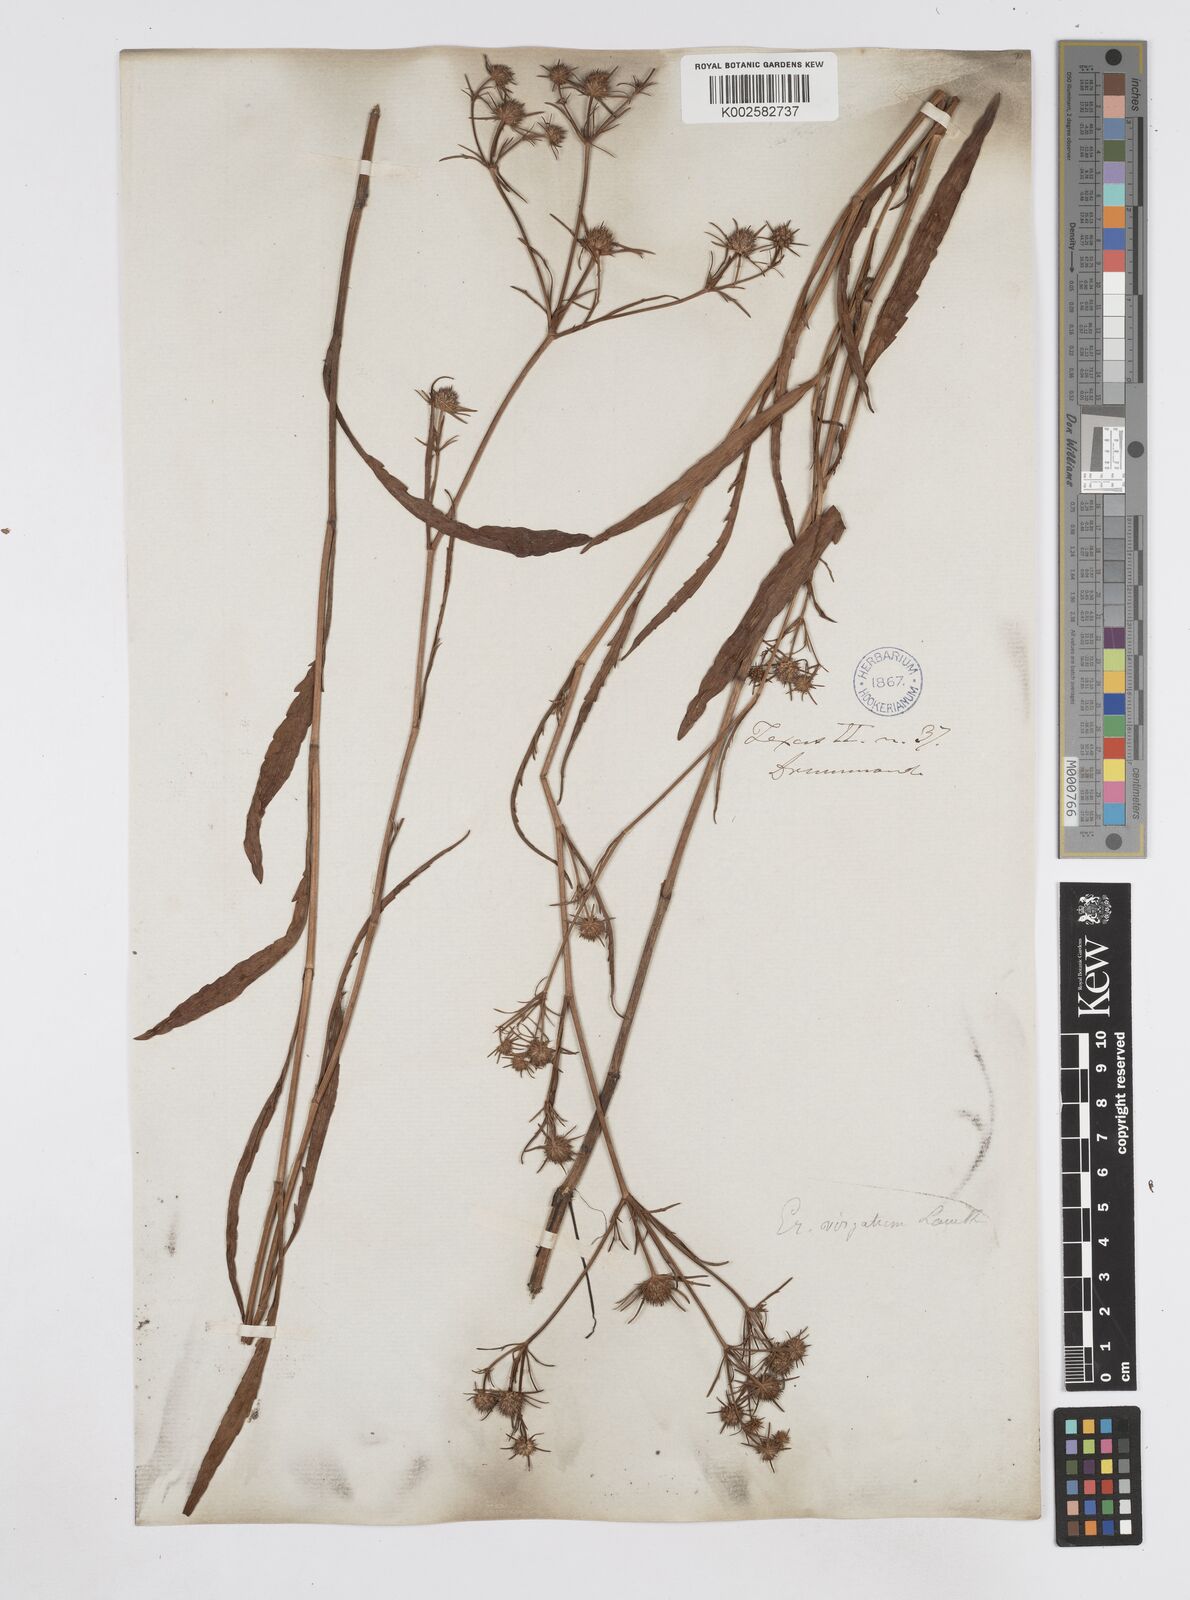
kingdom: Plantae
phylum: Tracheophyta
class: Magnoliopsida
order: Apiales
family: Apiaceae
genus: Eryngium
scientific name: Eryngium integrifolium
